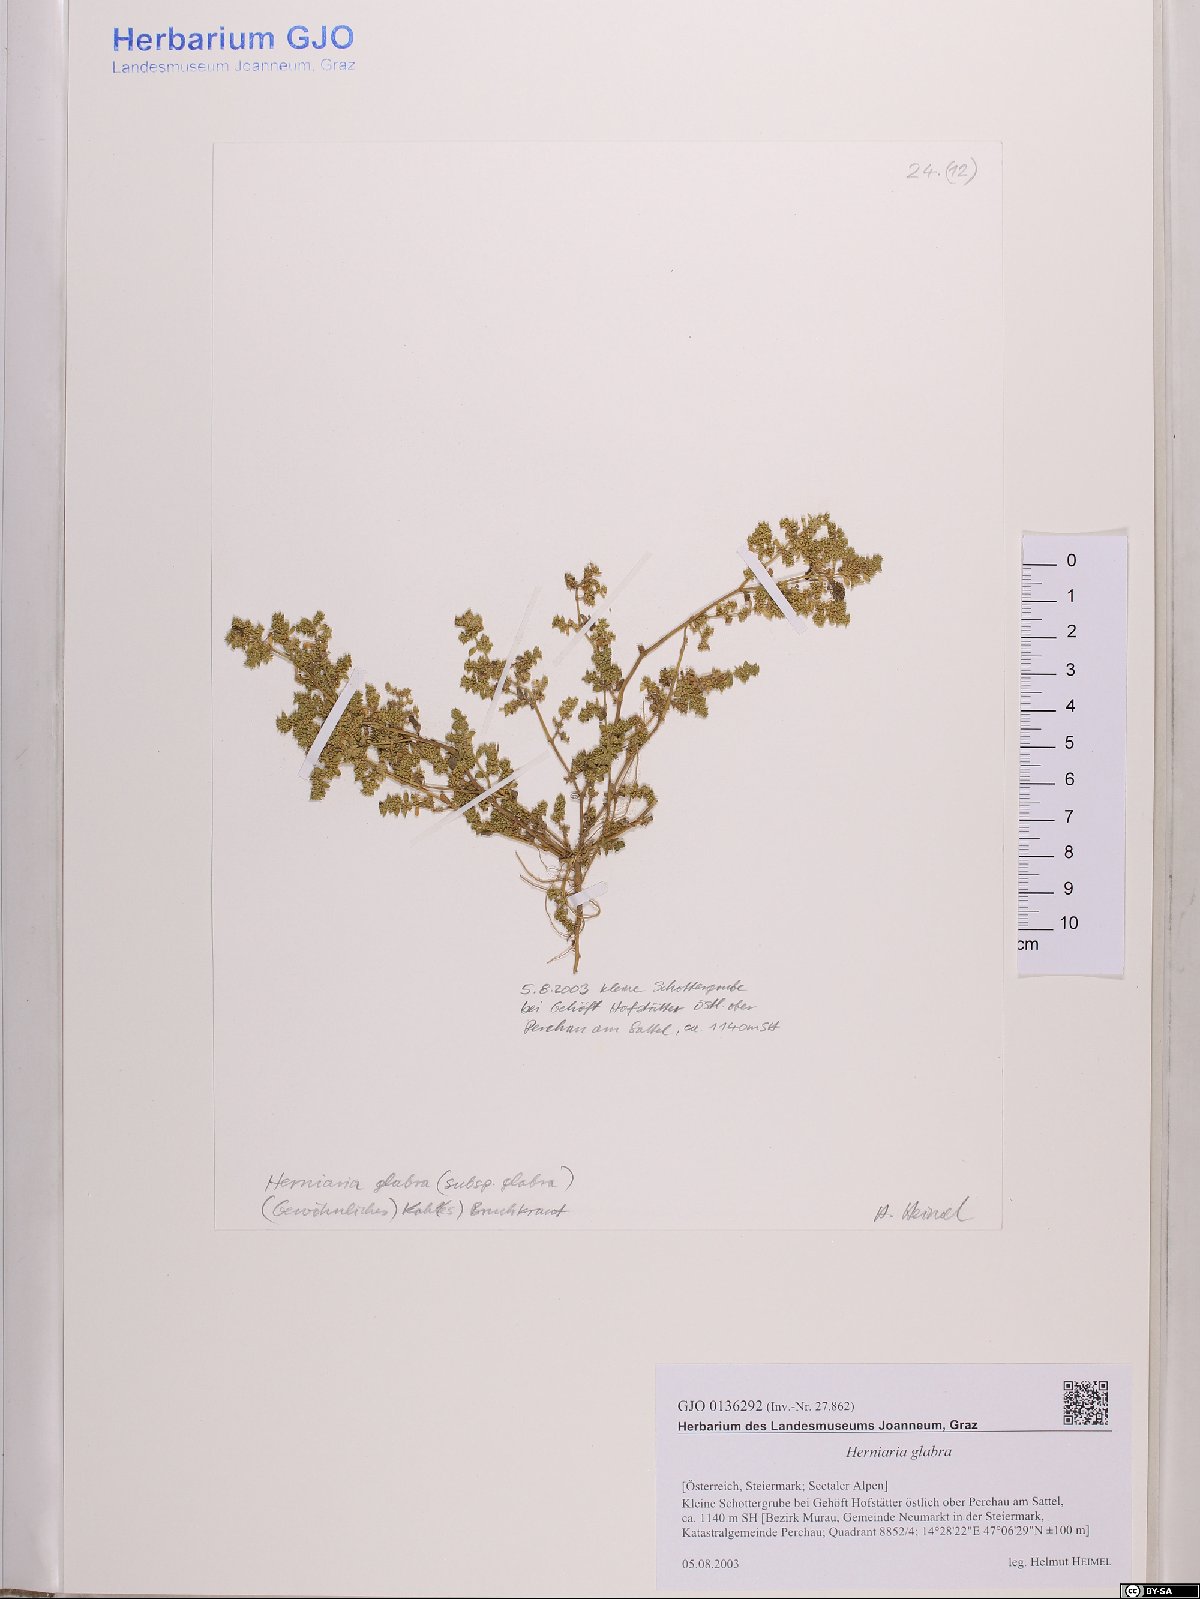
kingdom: Plantae
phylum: Tracheophyta
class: Magnoliopsida
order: Caryophyllales
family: Caryophyllaceae
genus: Herniaria
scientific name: Herniaria glabra
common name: Smooth rupturewort
